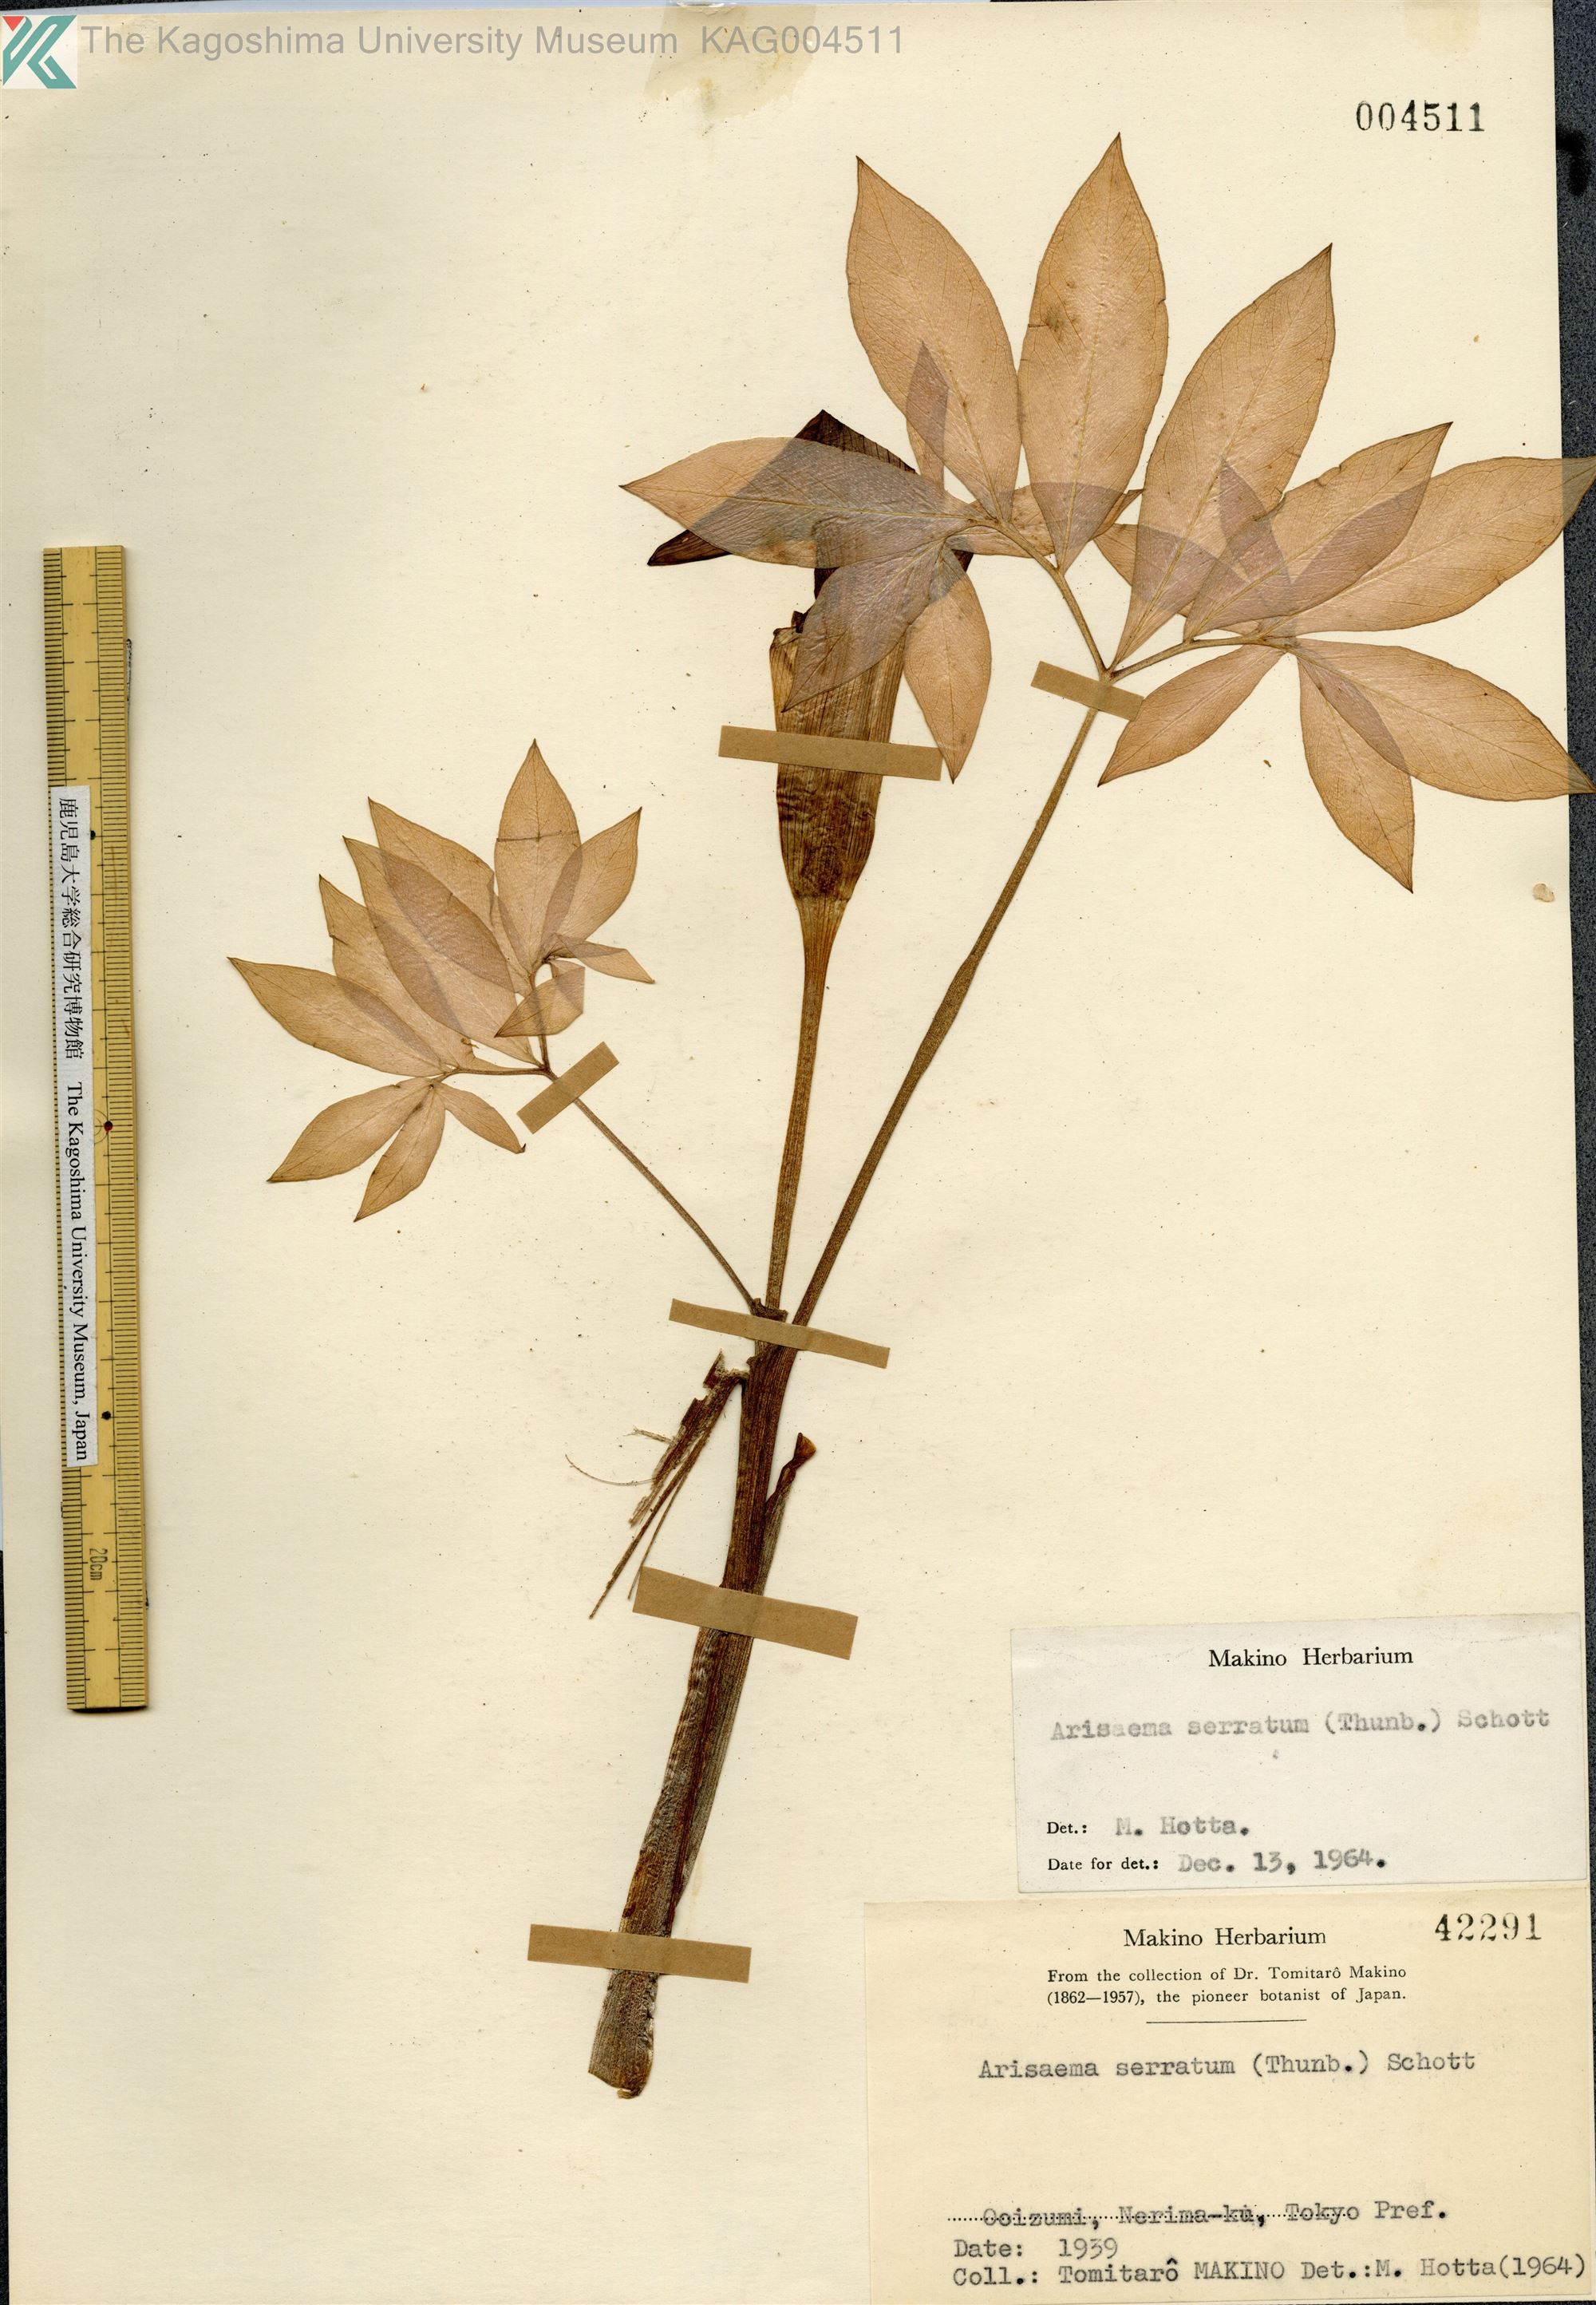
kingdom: Plantae
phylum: Tracheophyta
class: Liliopsida
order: Alismatales
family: Araceae
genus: Arisaema
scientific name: Arisaema serratum
